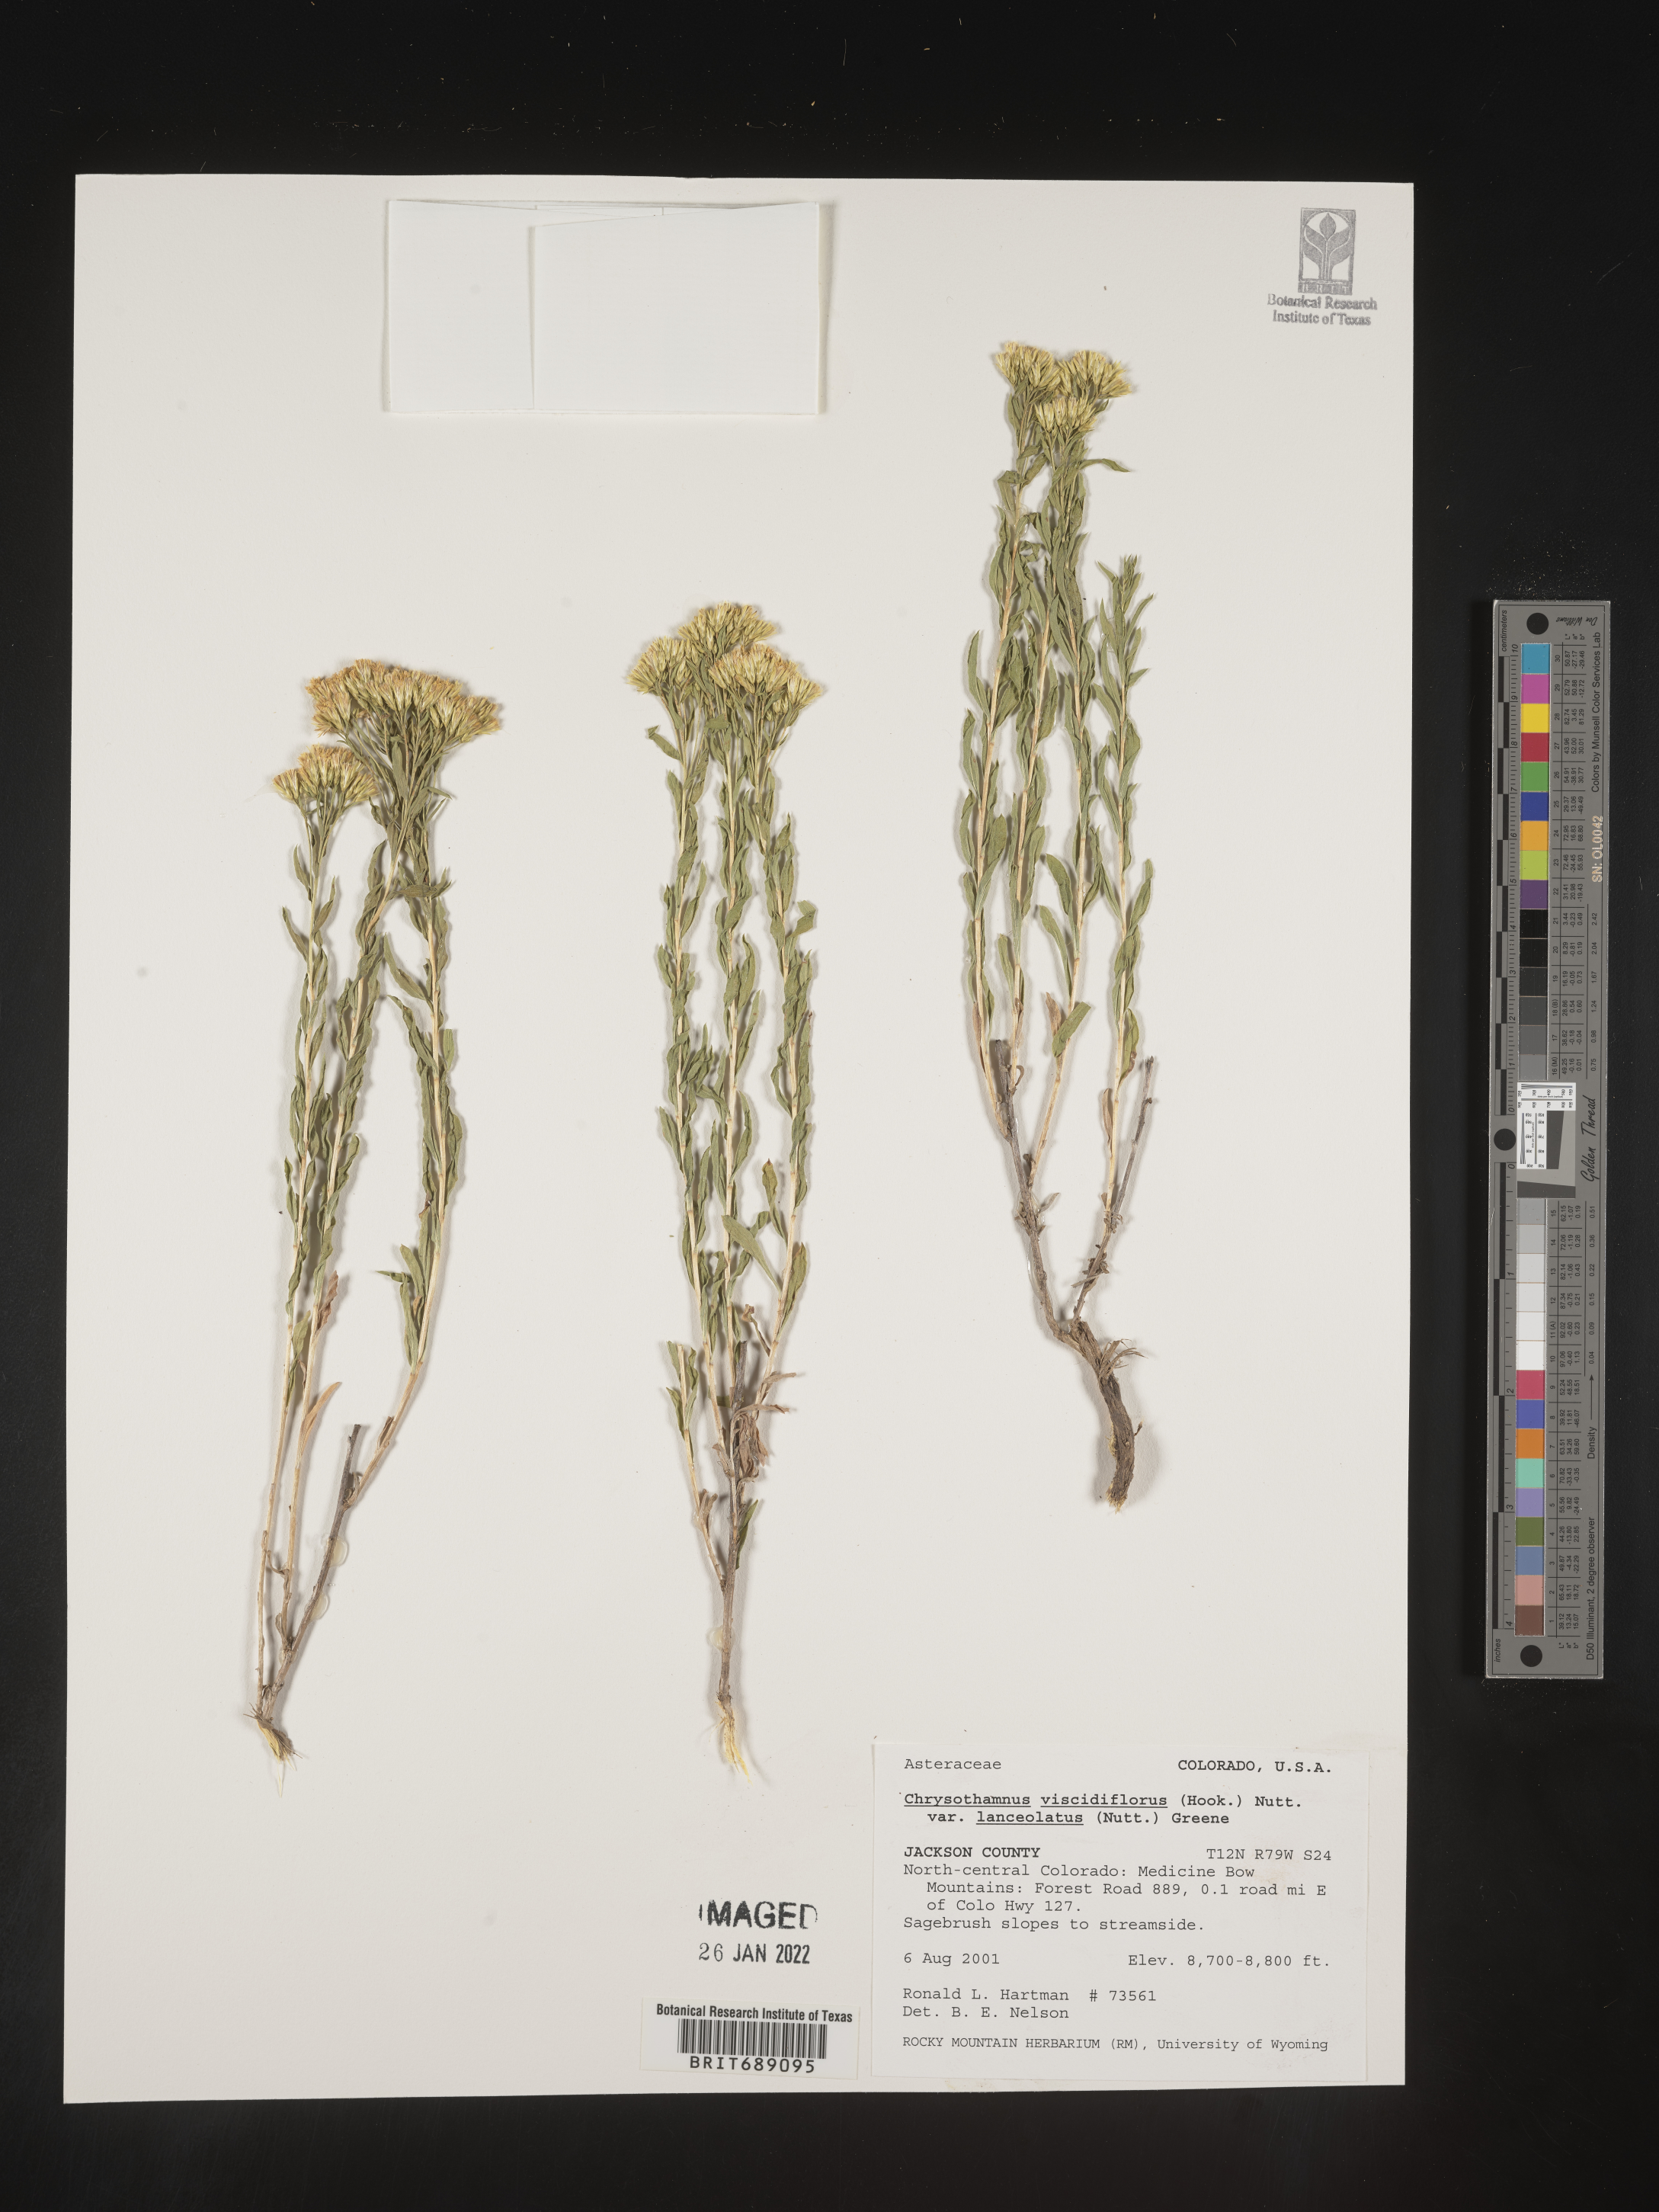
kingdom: Plantae
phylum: Tracheophyta
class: Magnoliopsida
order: Asterales
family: Asteraceae
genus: Chrysothamnus
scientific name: Chrysothamnus viscidiflorus
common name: Yellow rabbitbrush
